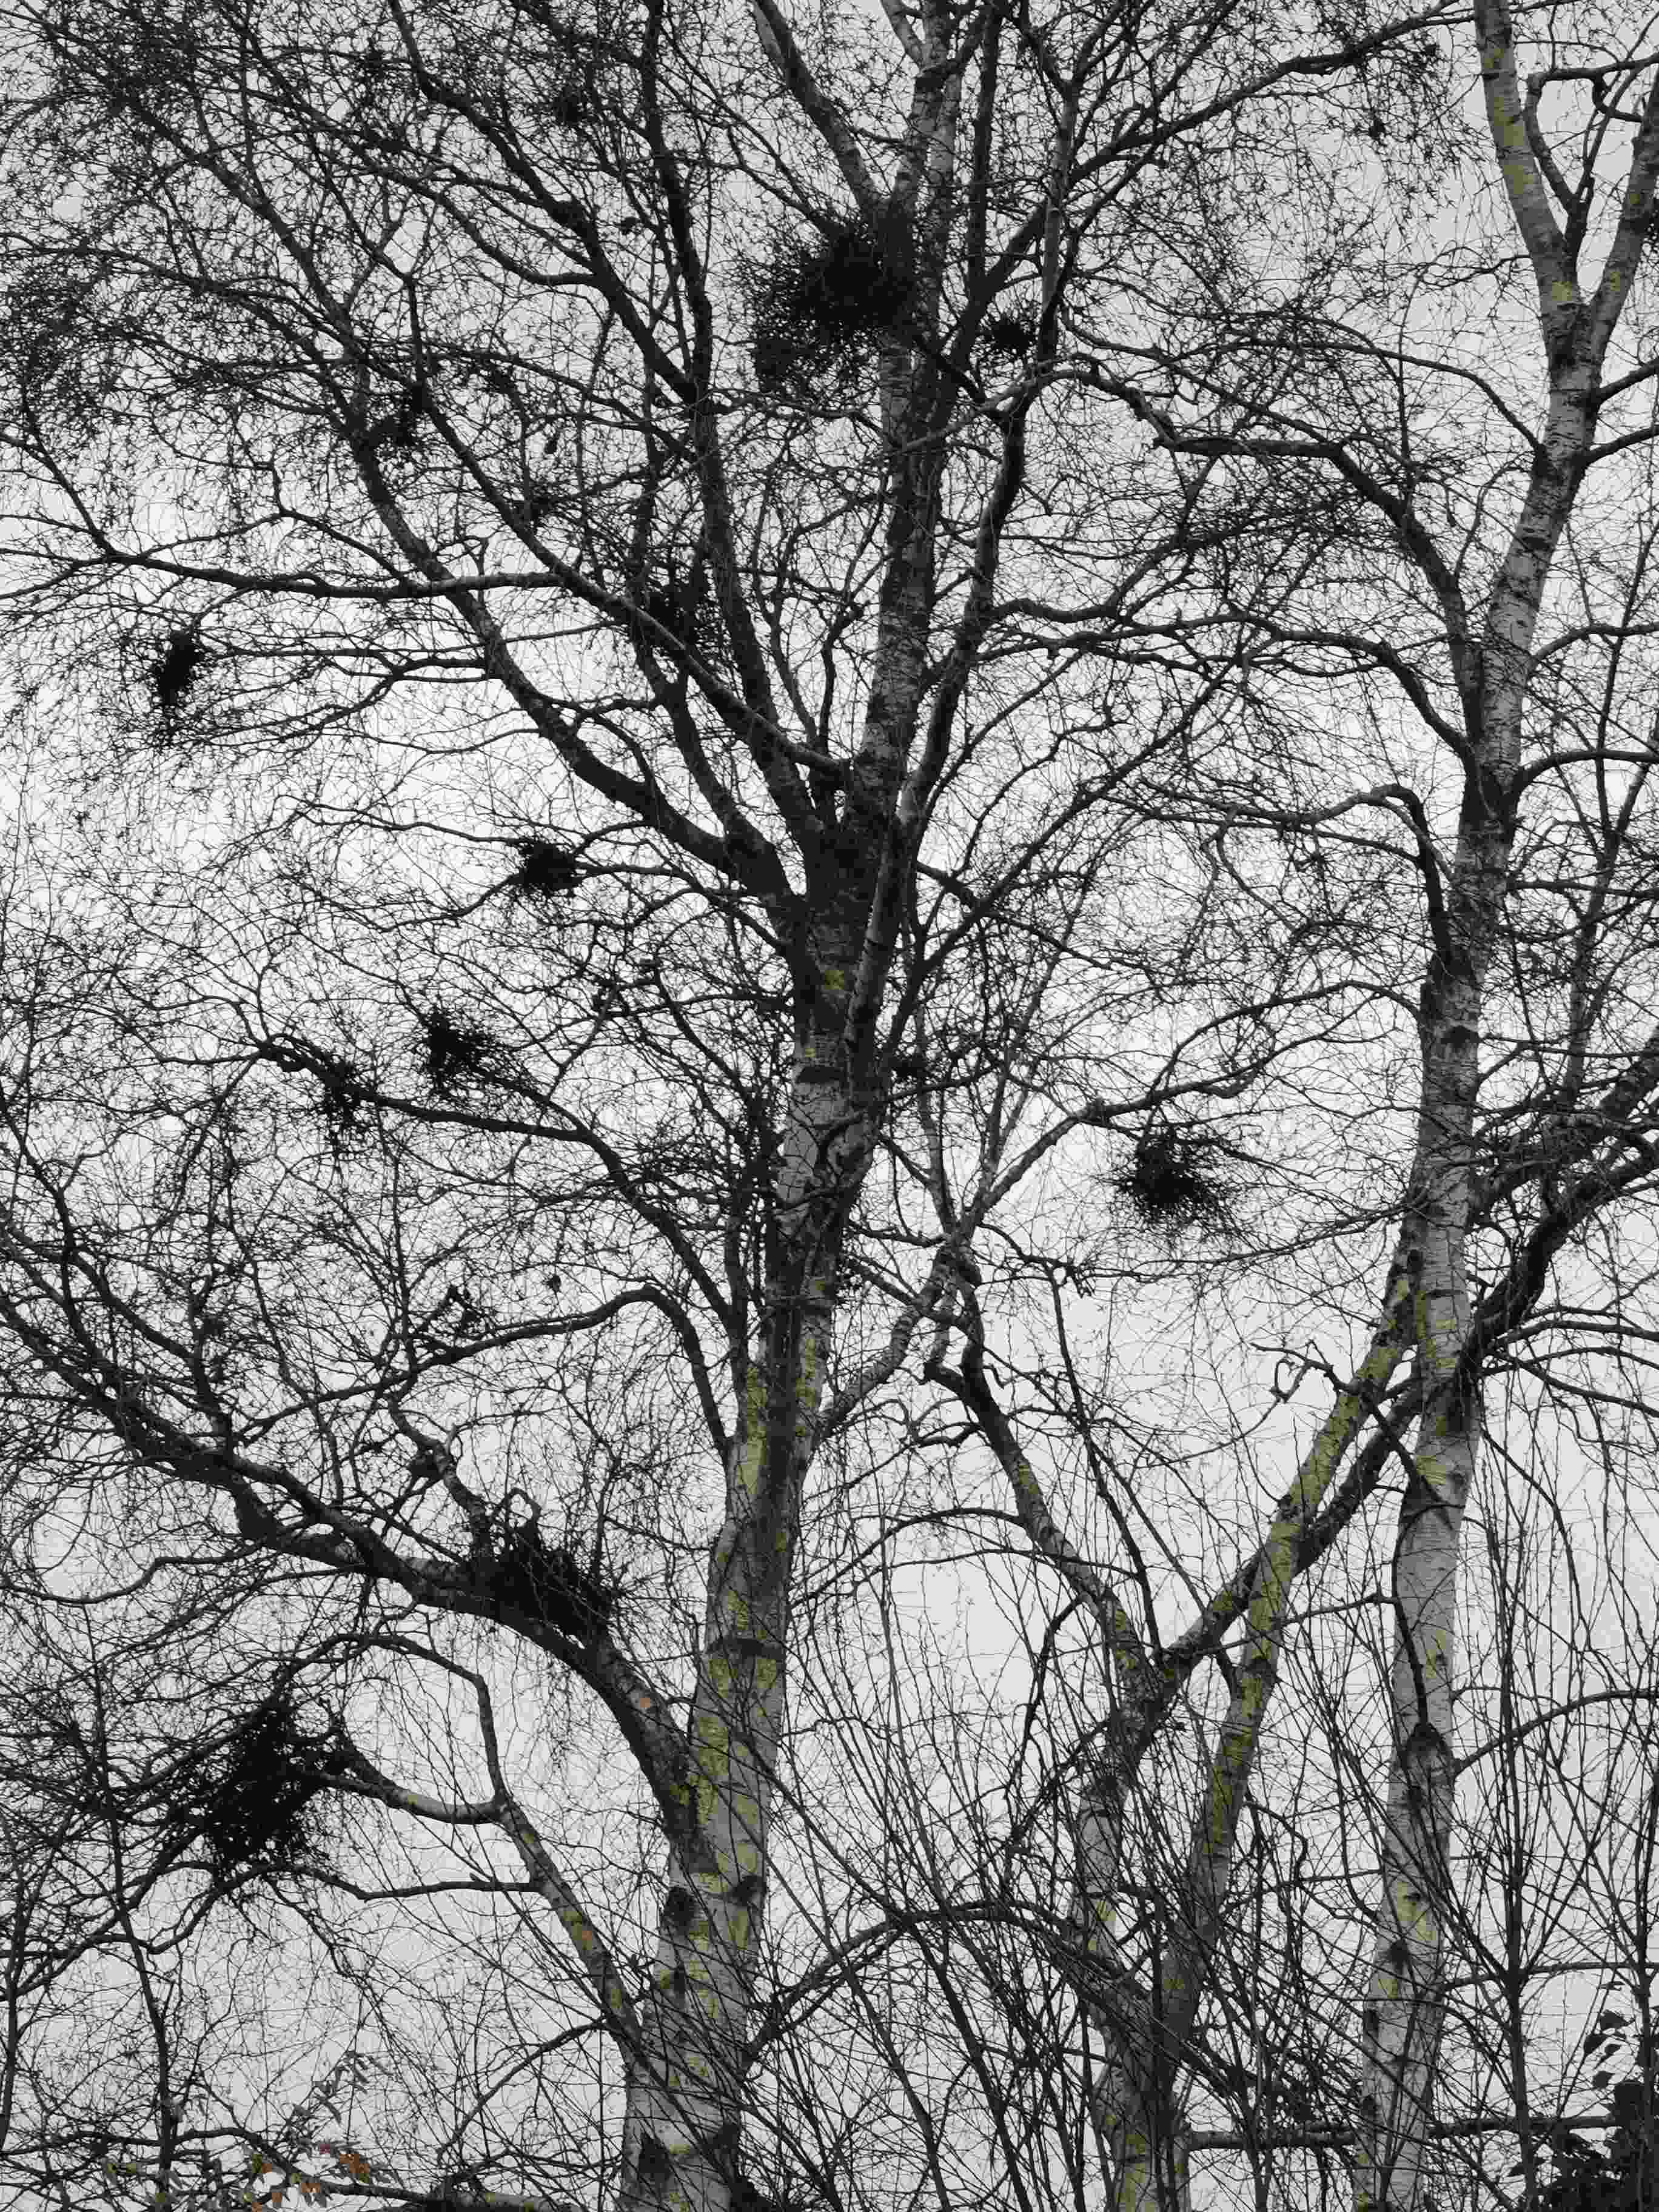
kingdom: Fungi
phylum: Ascomycota
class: Taphrinomycetes
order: Taphrinales
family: Taphrinaceae
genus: Taphrina
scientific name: Taphrina betulina
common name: hekse-sækdug
